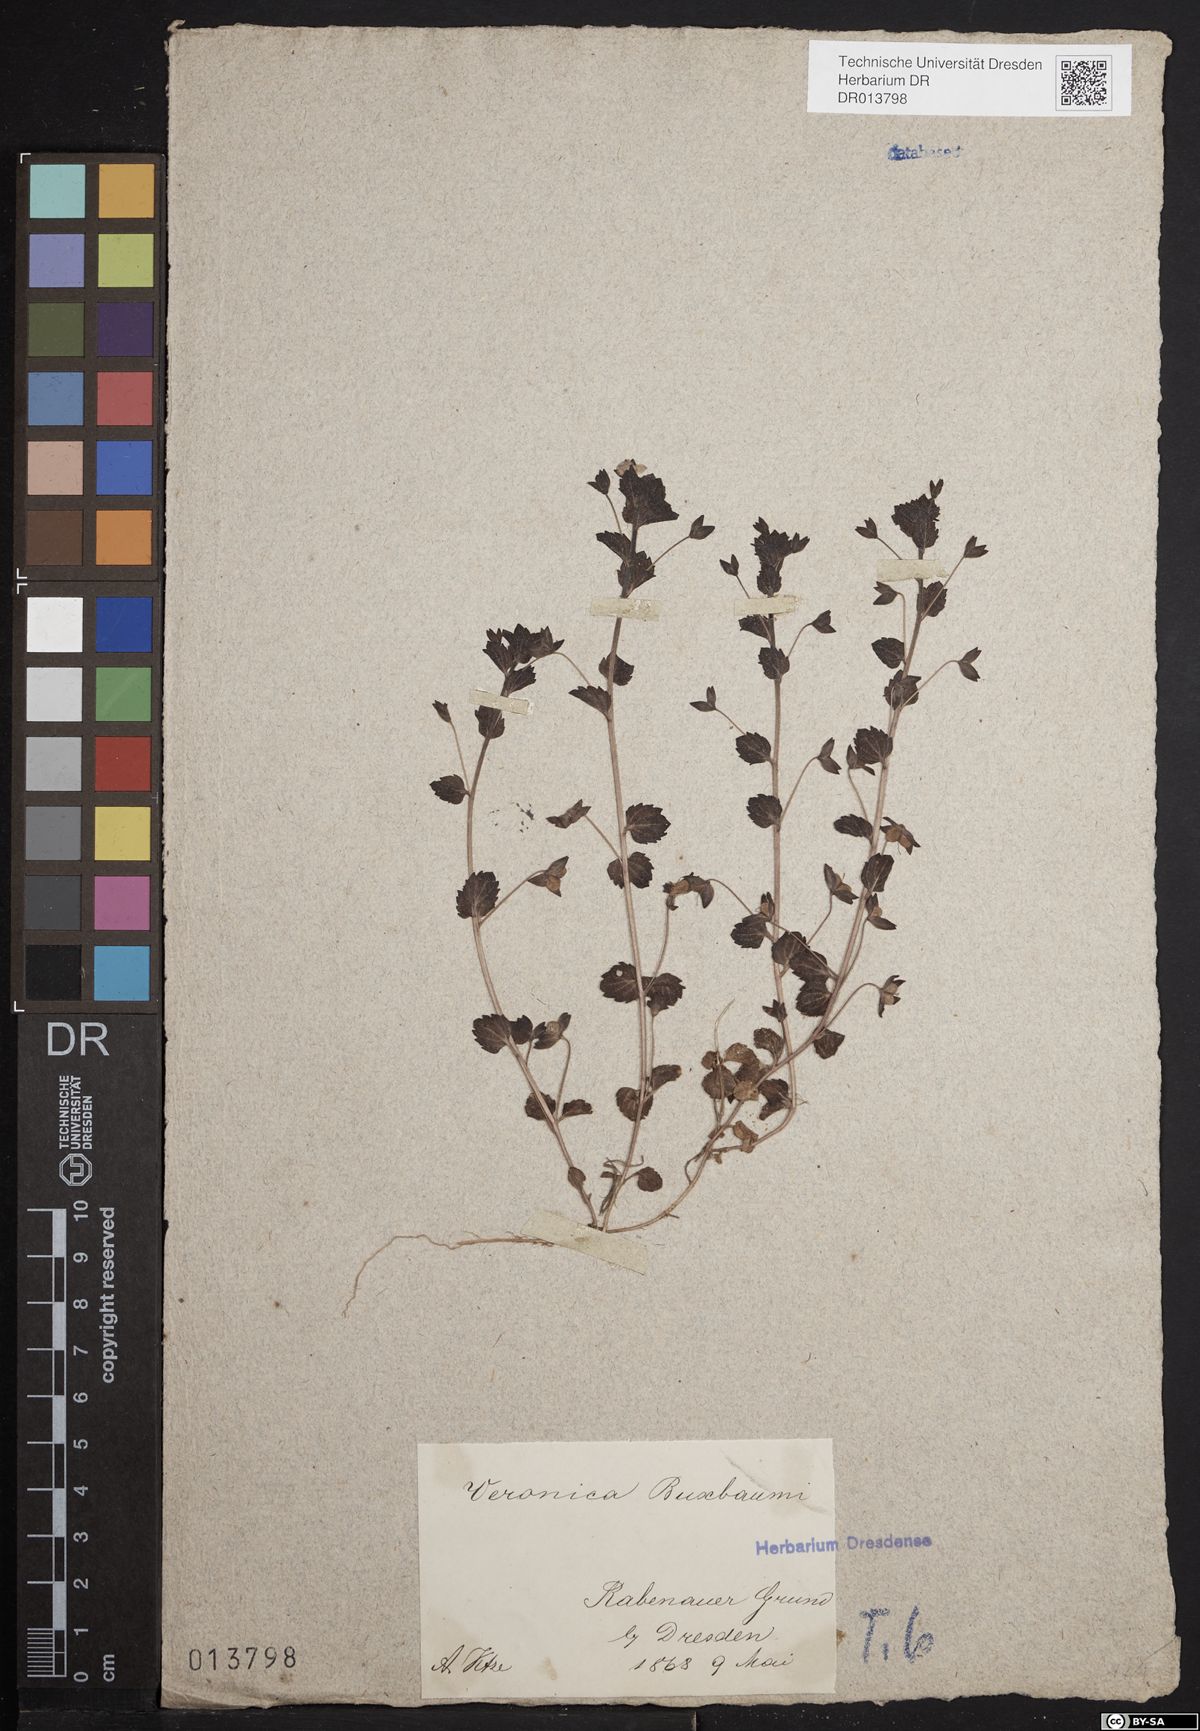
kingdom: Plantae
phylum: Tracheophyta
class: Magnoliopsida
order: Lamiales
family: Plantaginaceae
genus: Veronica
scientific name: Veronica persica
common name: Common field-speedwell
